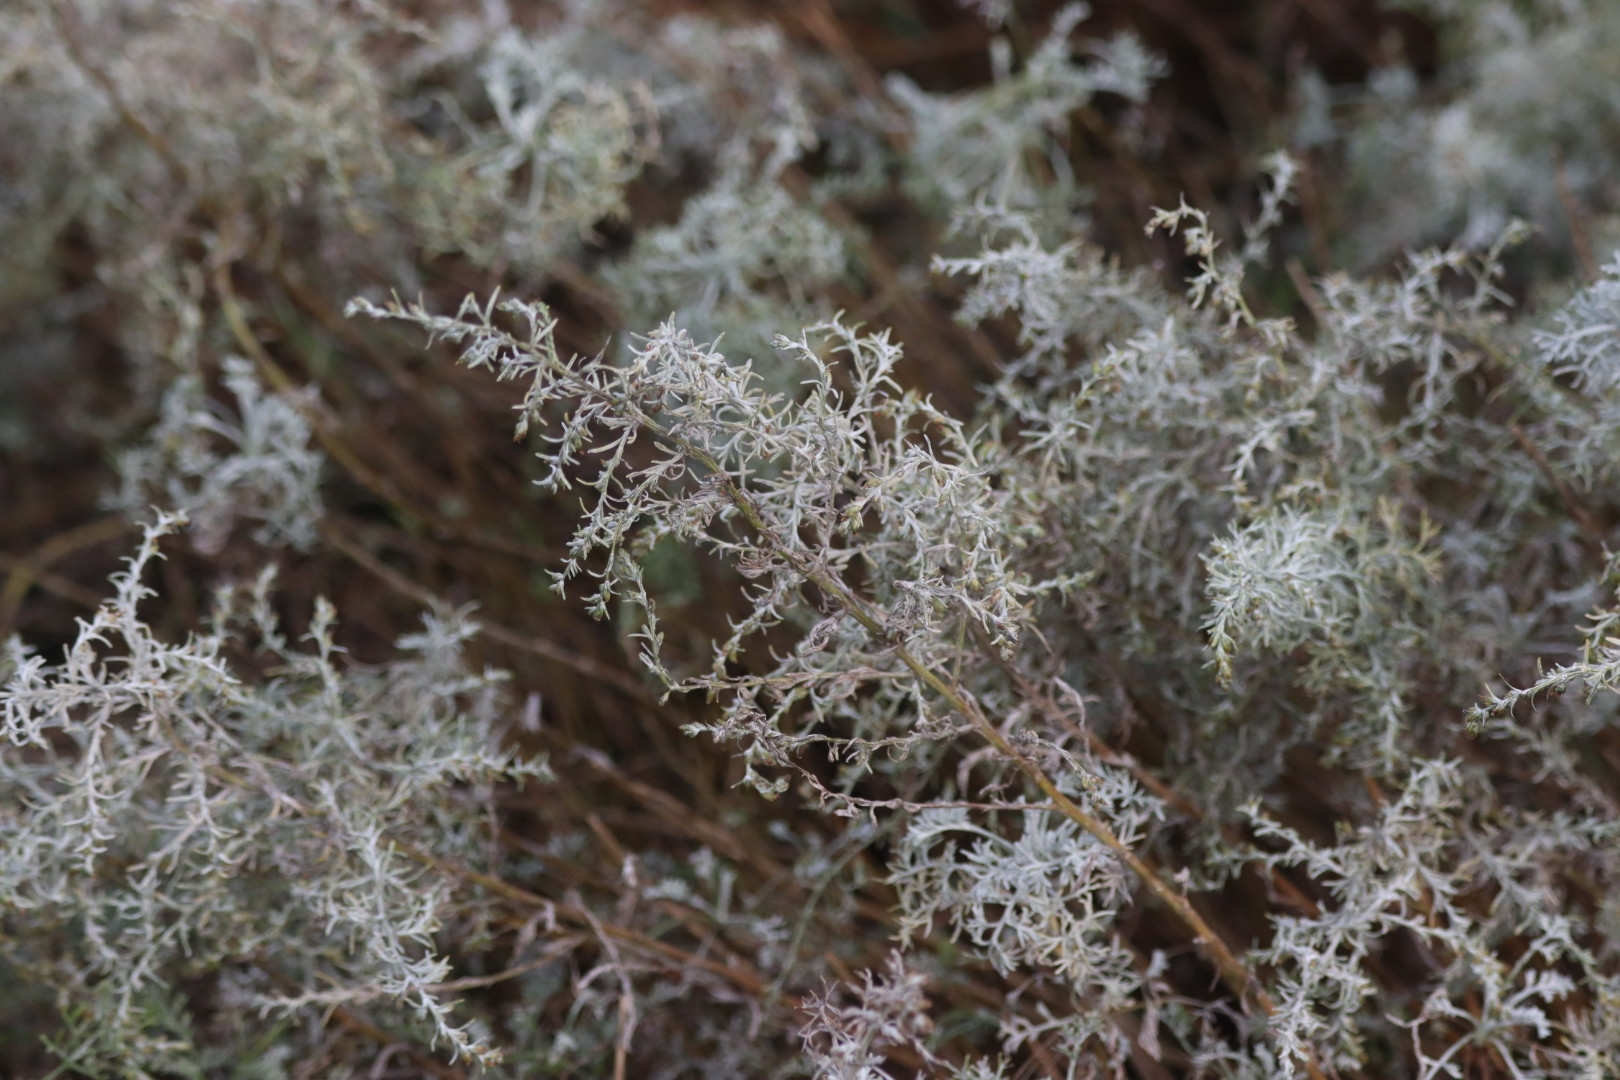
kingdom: Plantae
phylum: Tracheophyta
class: Magnoliopsida
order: Asterales
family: Asteraceae
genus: Artemisia
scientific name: Artemisia maritima
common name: Strandmalurt
